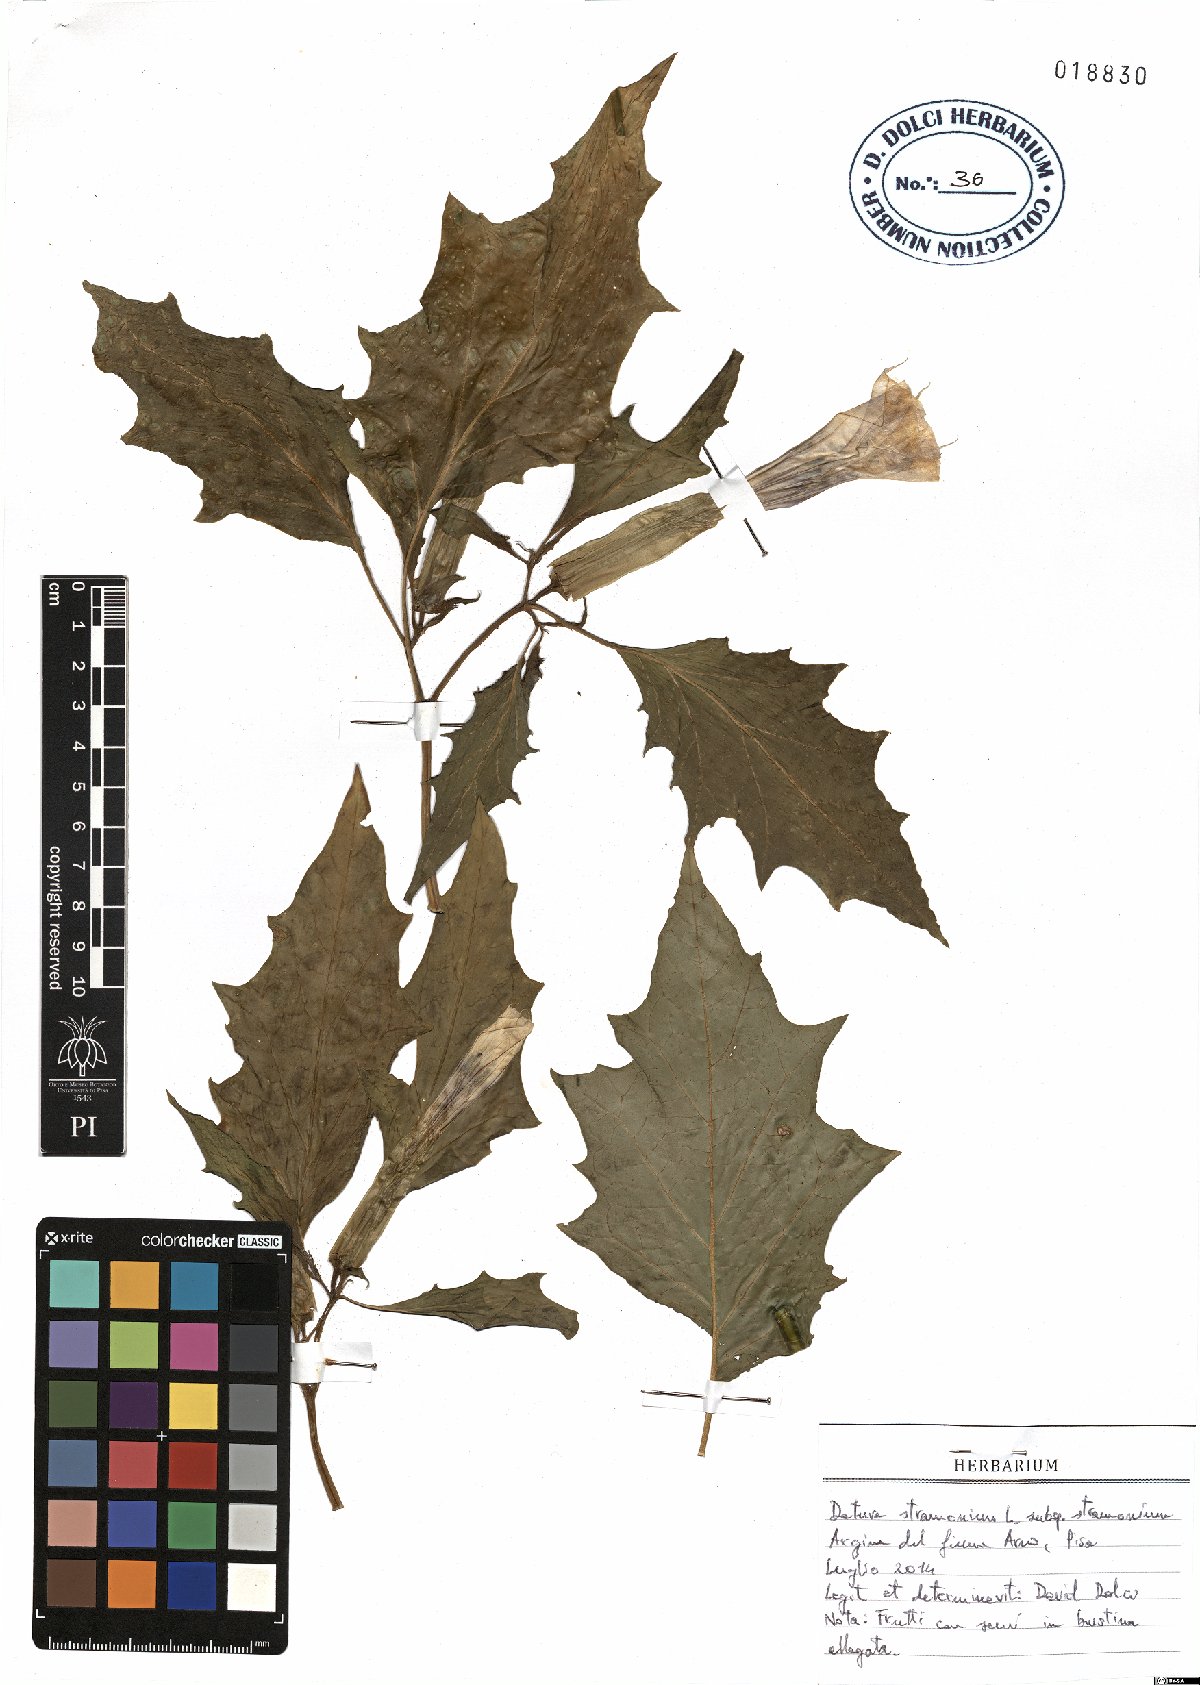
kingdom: Plantae
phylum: Tracheophyta
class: Magnoliopsida
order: Solanales
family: Solanaceae
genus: Datura
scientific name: Datura stramonium
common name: Thorn-apple
